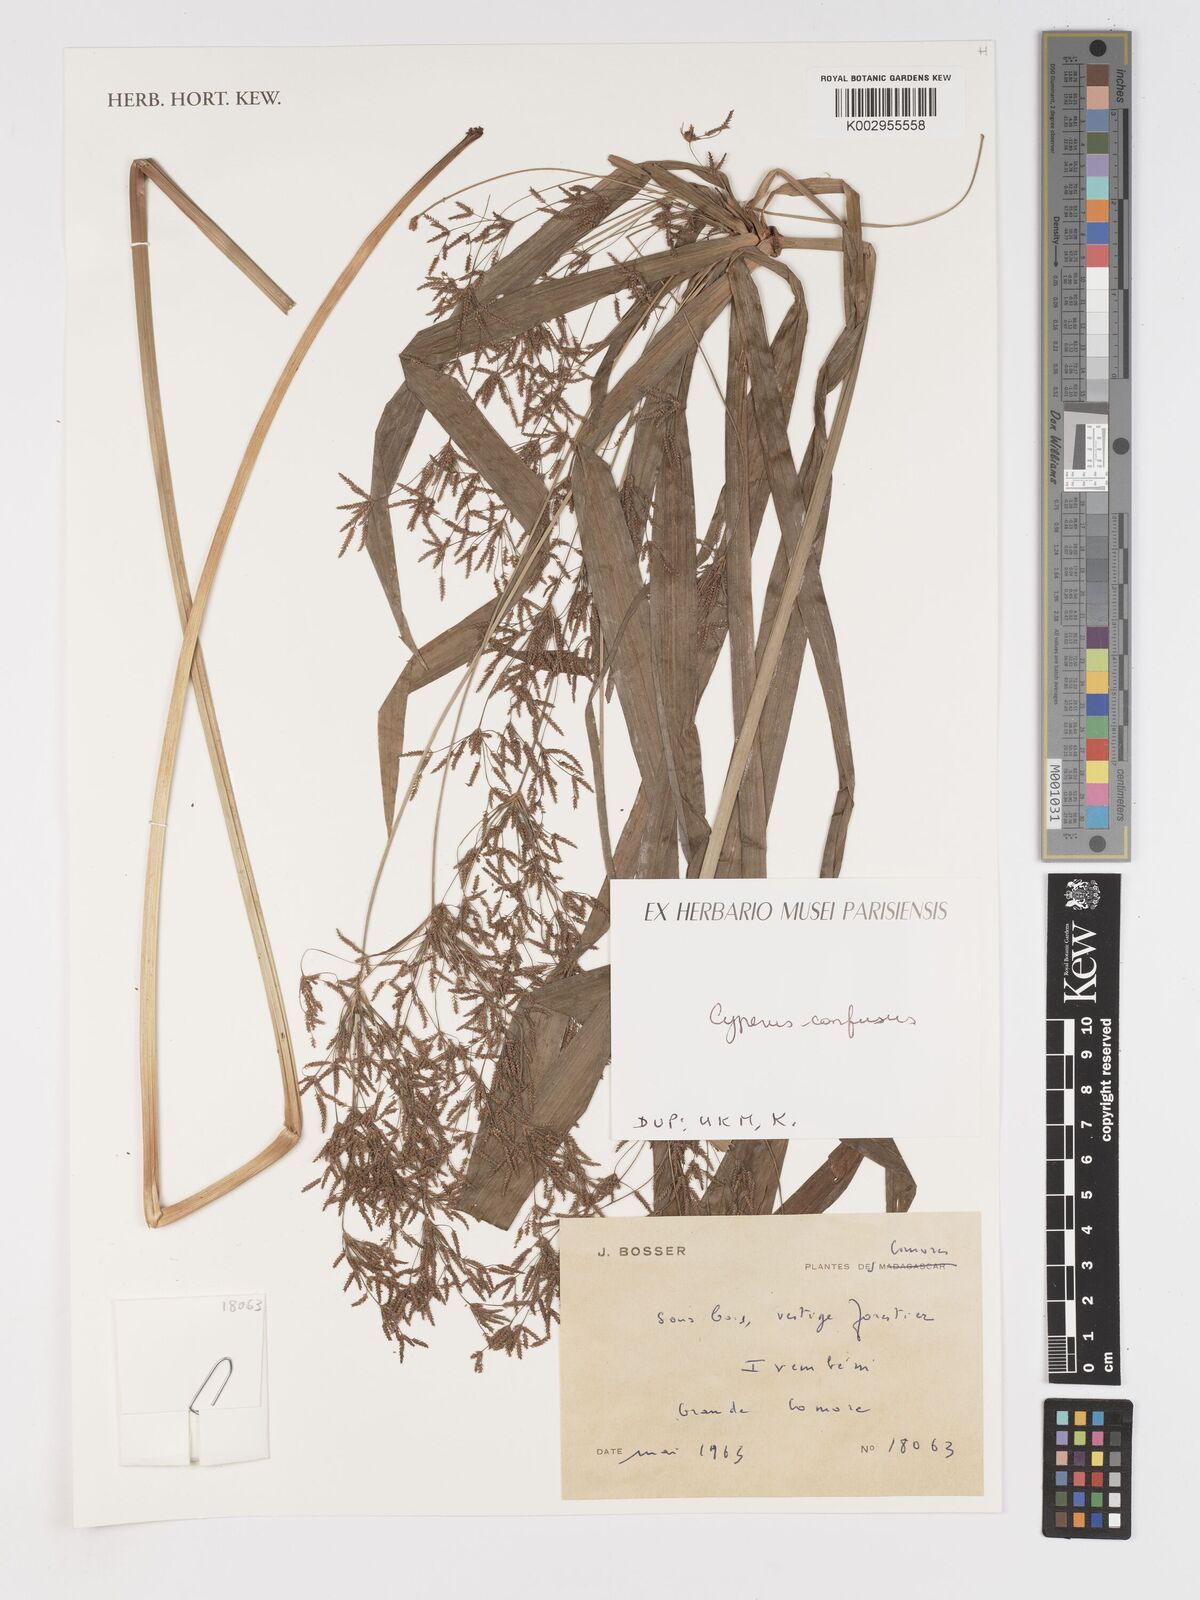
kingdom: Plantae
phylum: Tracheophyta
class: Liliopsida
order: Poales
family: Cyperaceae
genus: Cyperus
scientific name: Cyperus longifolius
